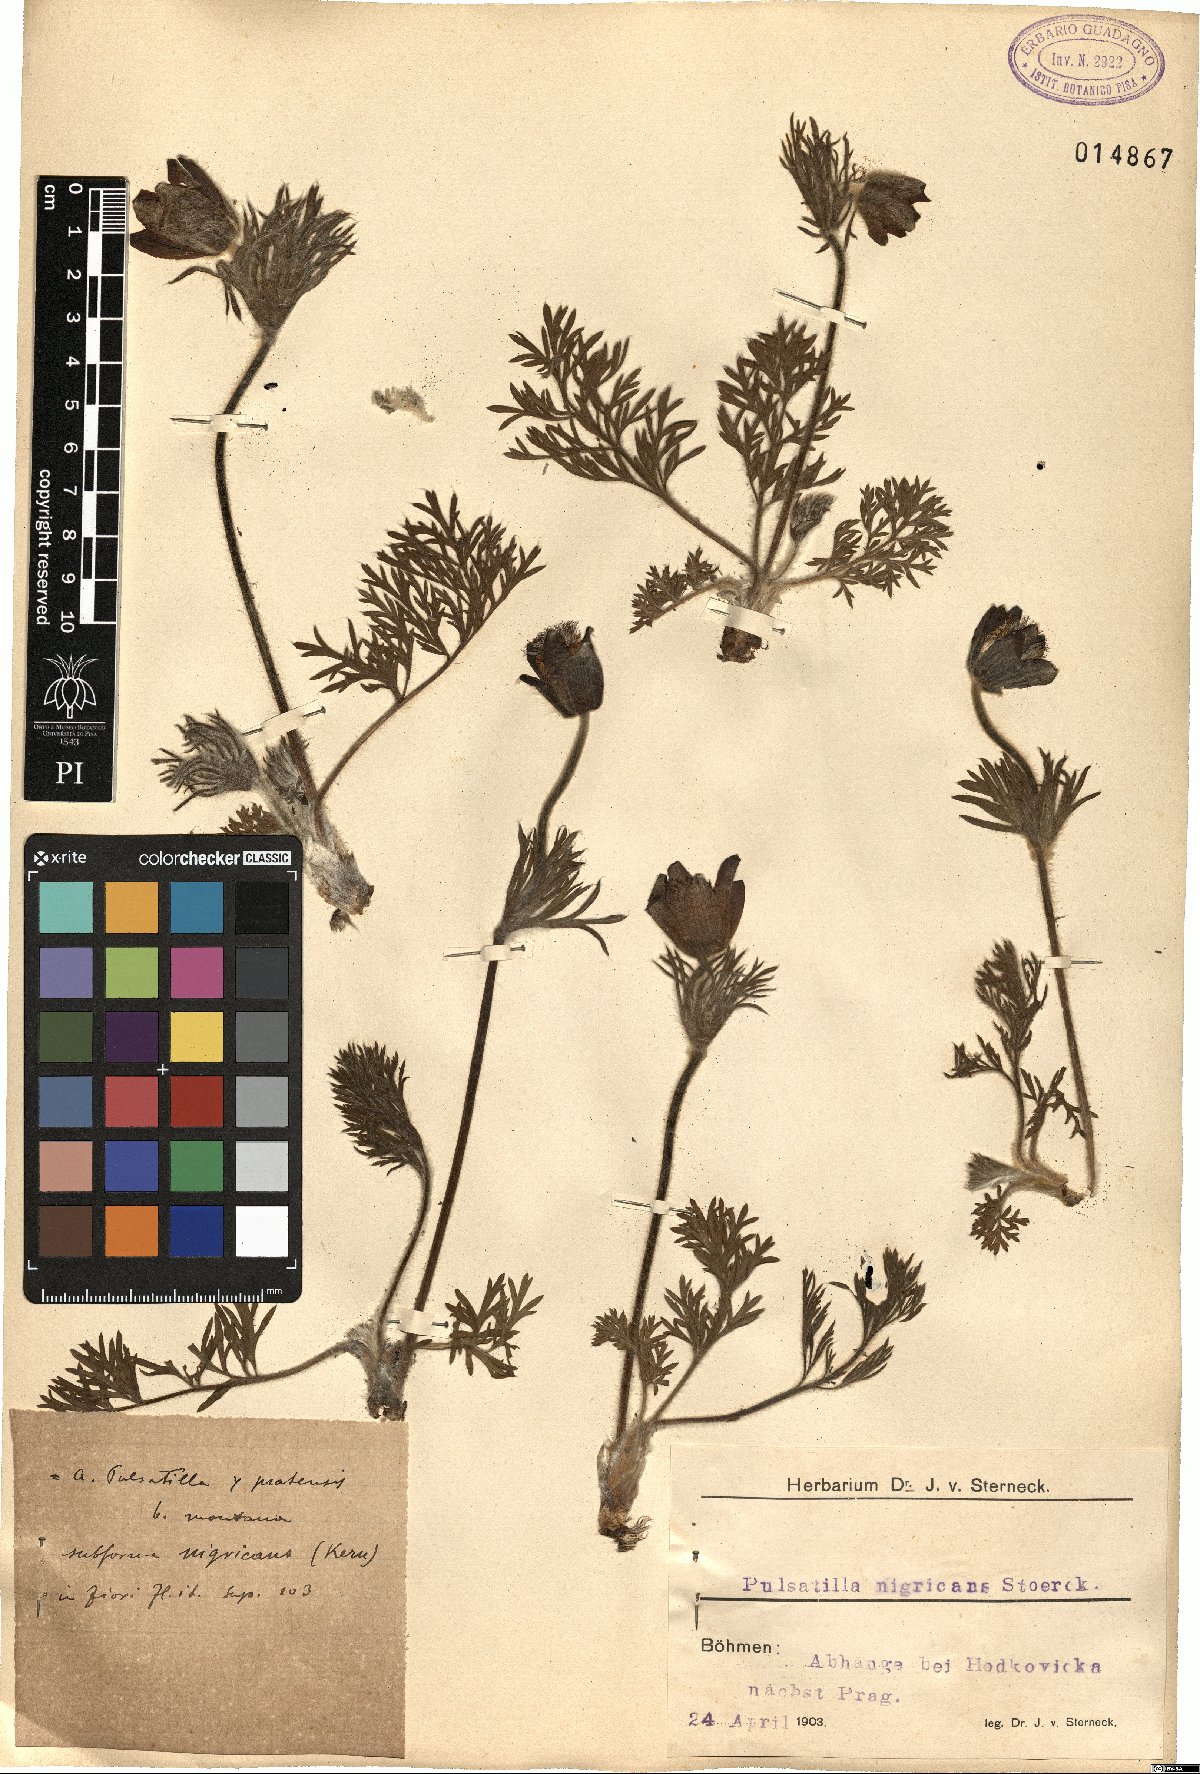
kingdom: Plantae
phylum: Tracheophyta
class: Magnoliopsida
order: Ranunculales
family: Ranunculaceae
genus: Pulsatilla
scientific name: Pulsatilla pratensis
